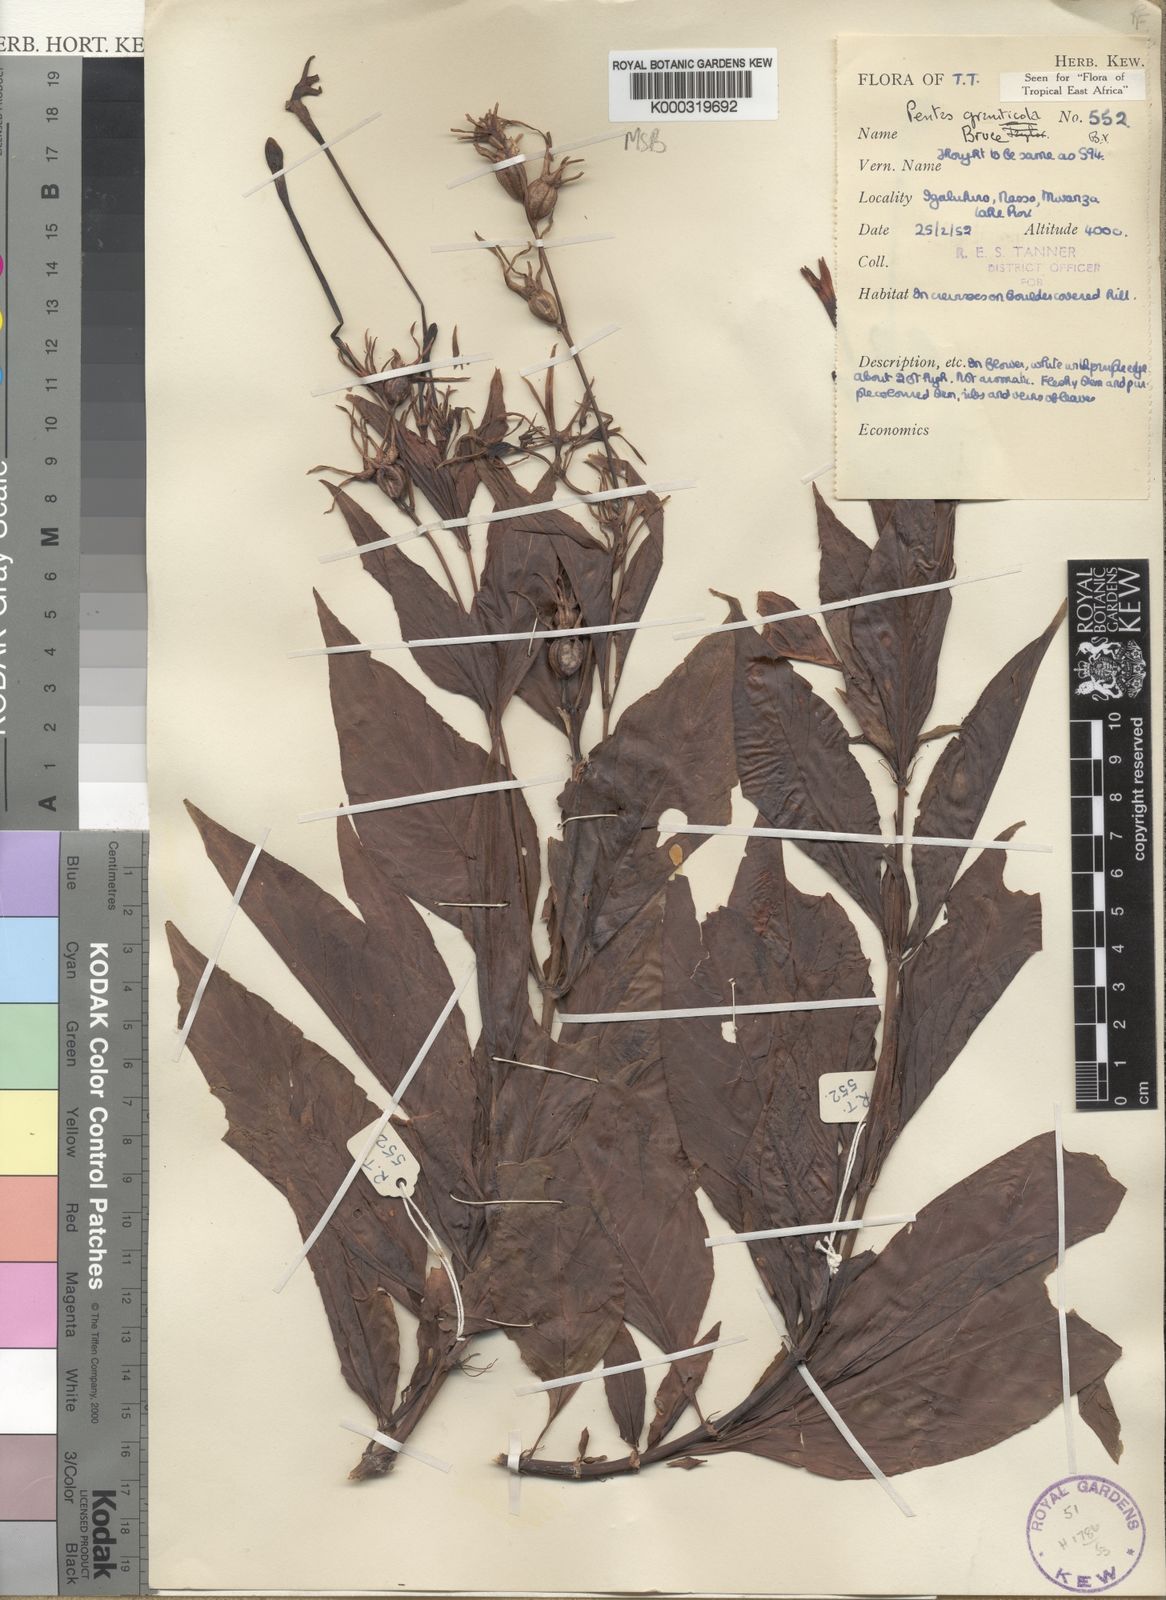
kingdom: Plantae
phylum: Tracheophyta
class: Magnoliopsida
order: Gentianales
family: Rubiaceae
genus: Chamaepentas
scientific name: Chamaepentas graniticola
